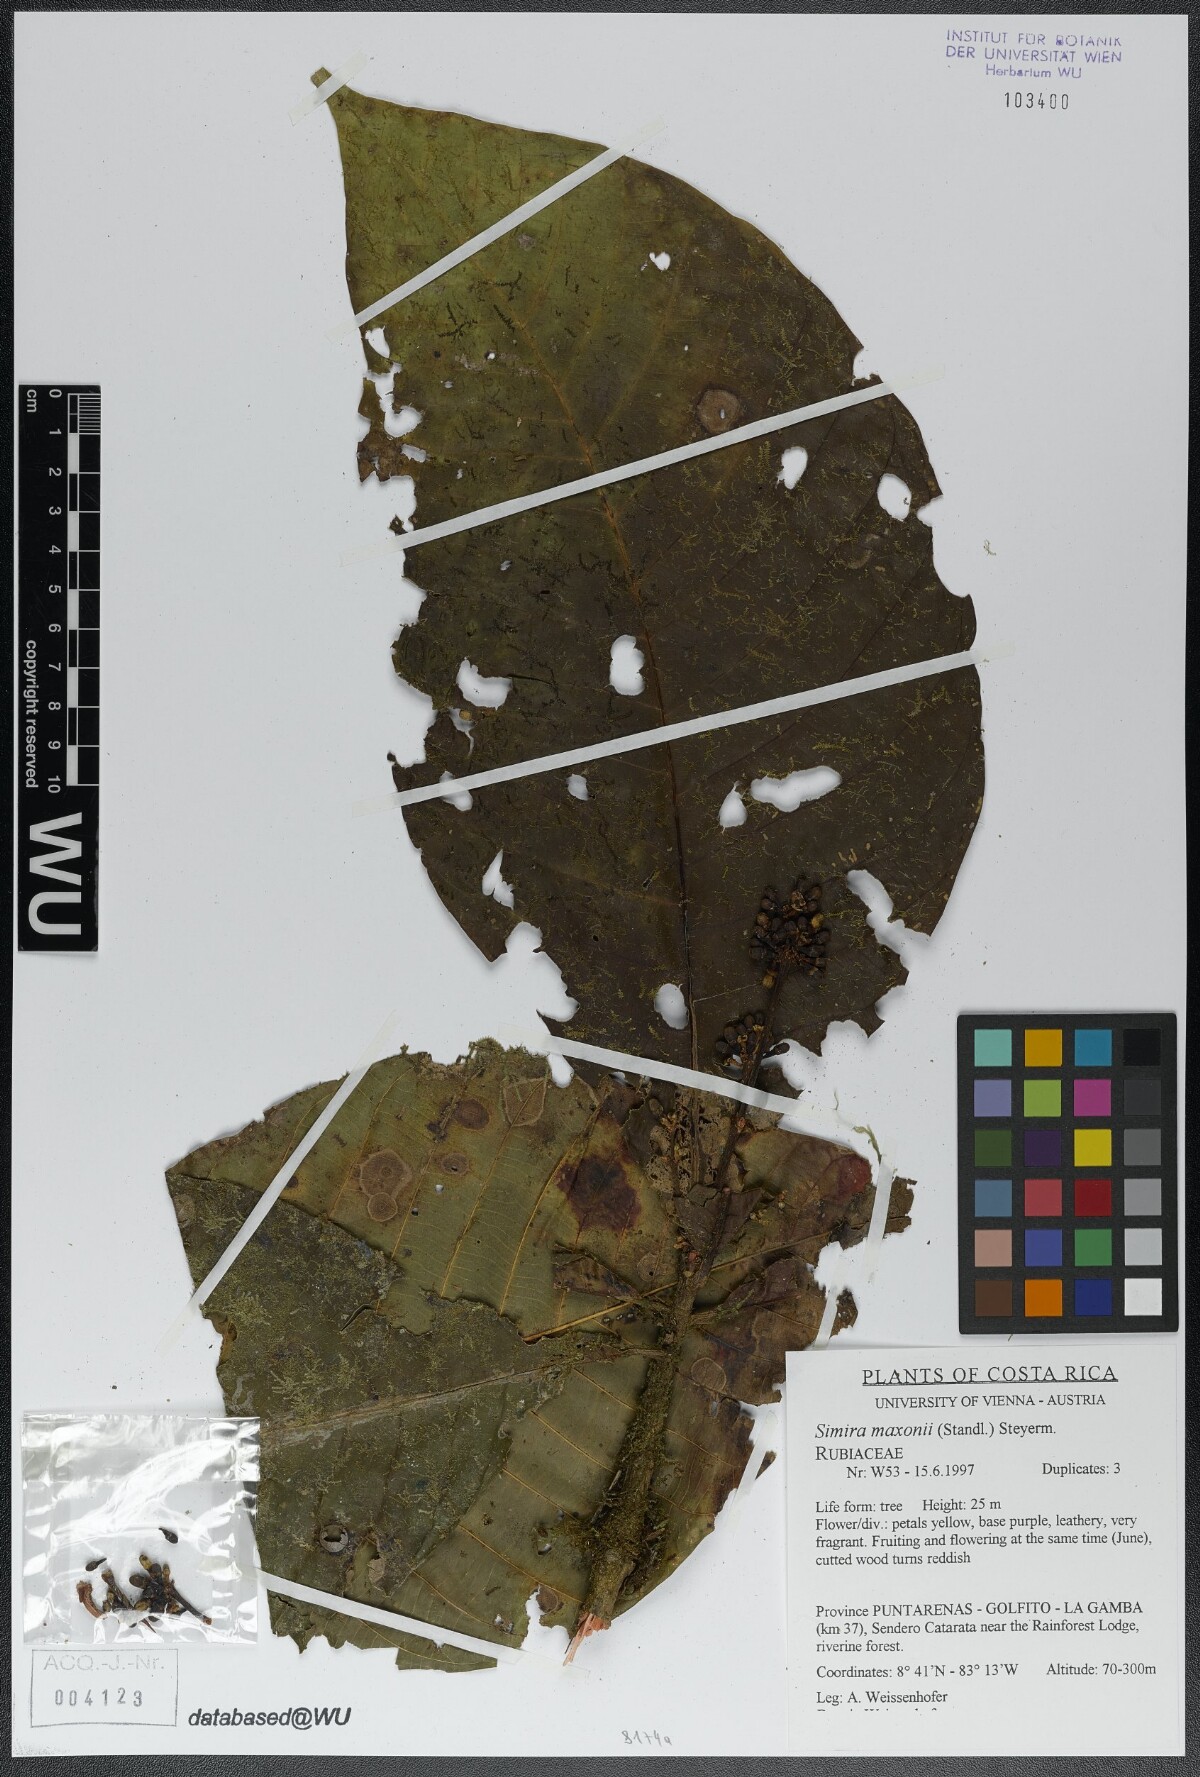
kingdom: Plantae
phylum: Tracheophyta
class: Magnoliopsida
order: Gentianales
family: Rubiaceae
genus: Simira
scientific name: Simira maxonii
